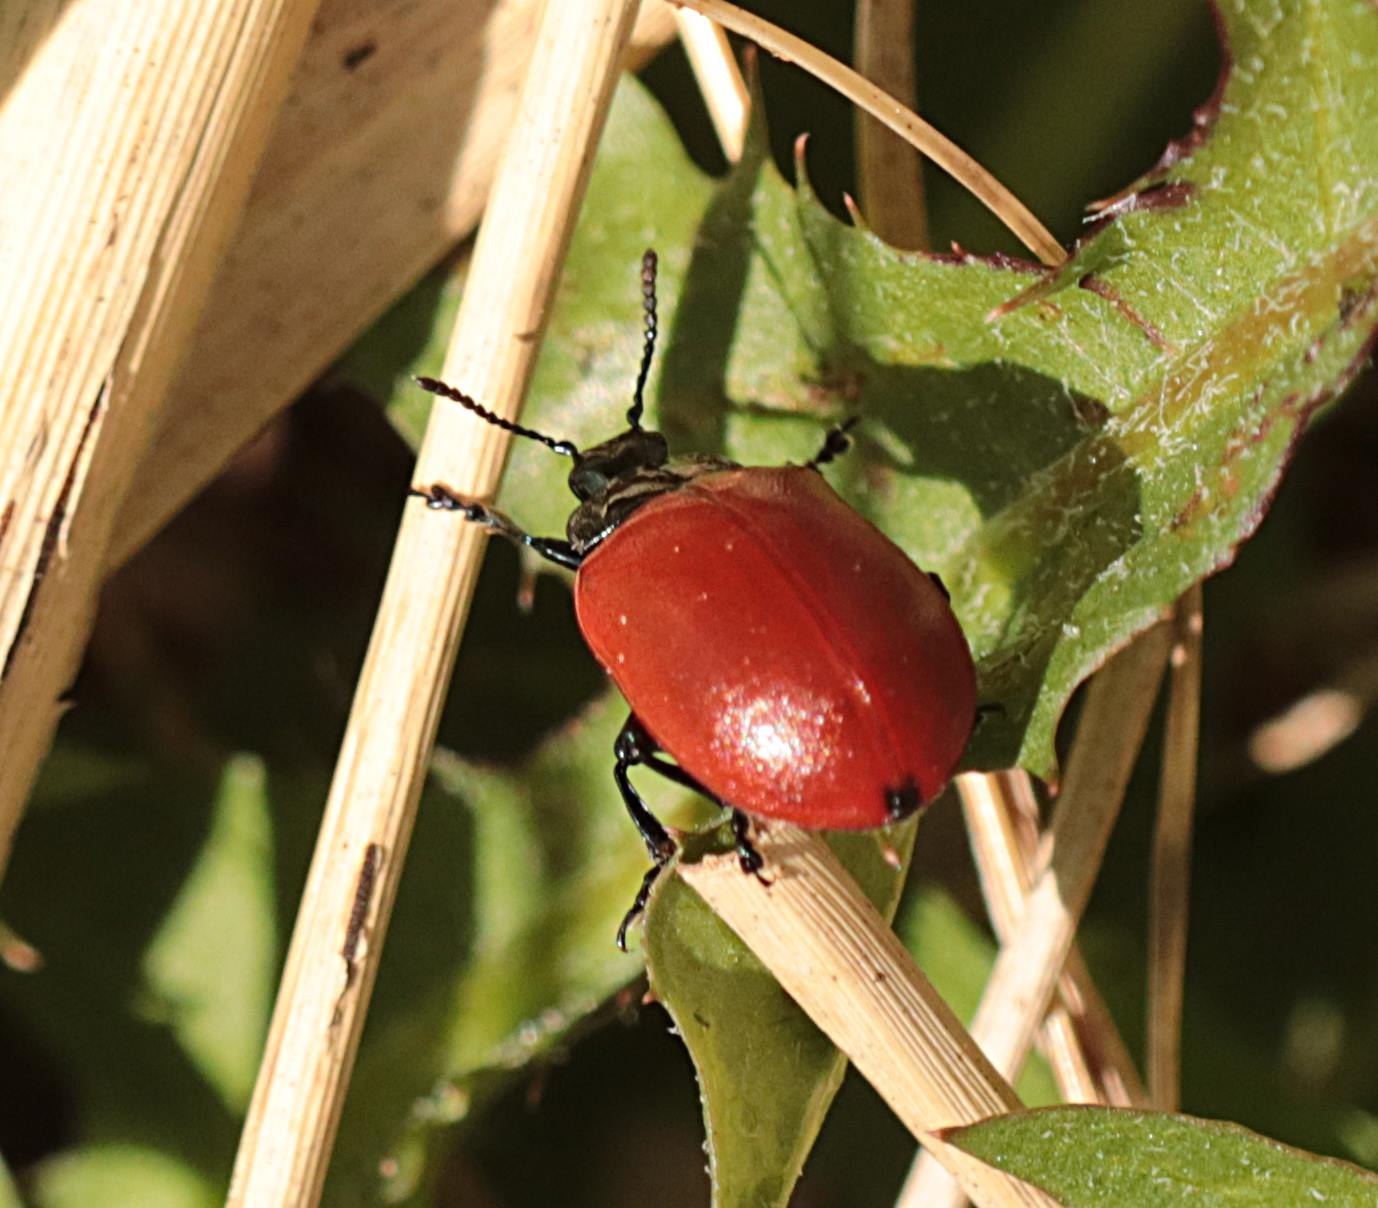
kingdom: Animalia
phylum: Arthropoda
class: Insecta
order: Coleoptera
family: Chrysomelidae
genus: Chrysomela
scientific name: Chrysomela populi
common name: Poppelbladbille
